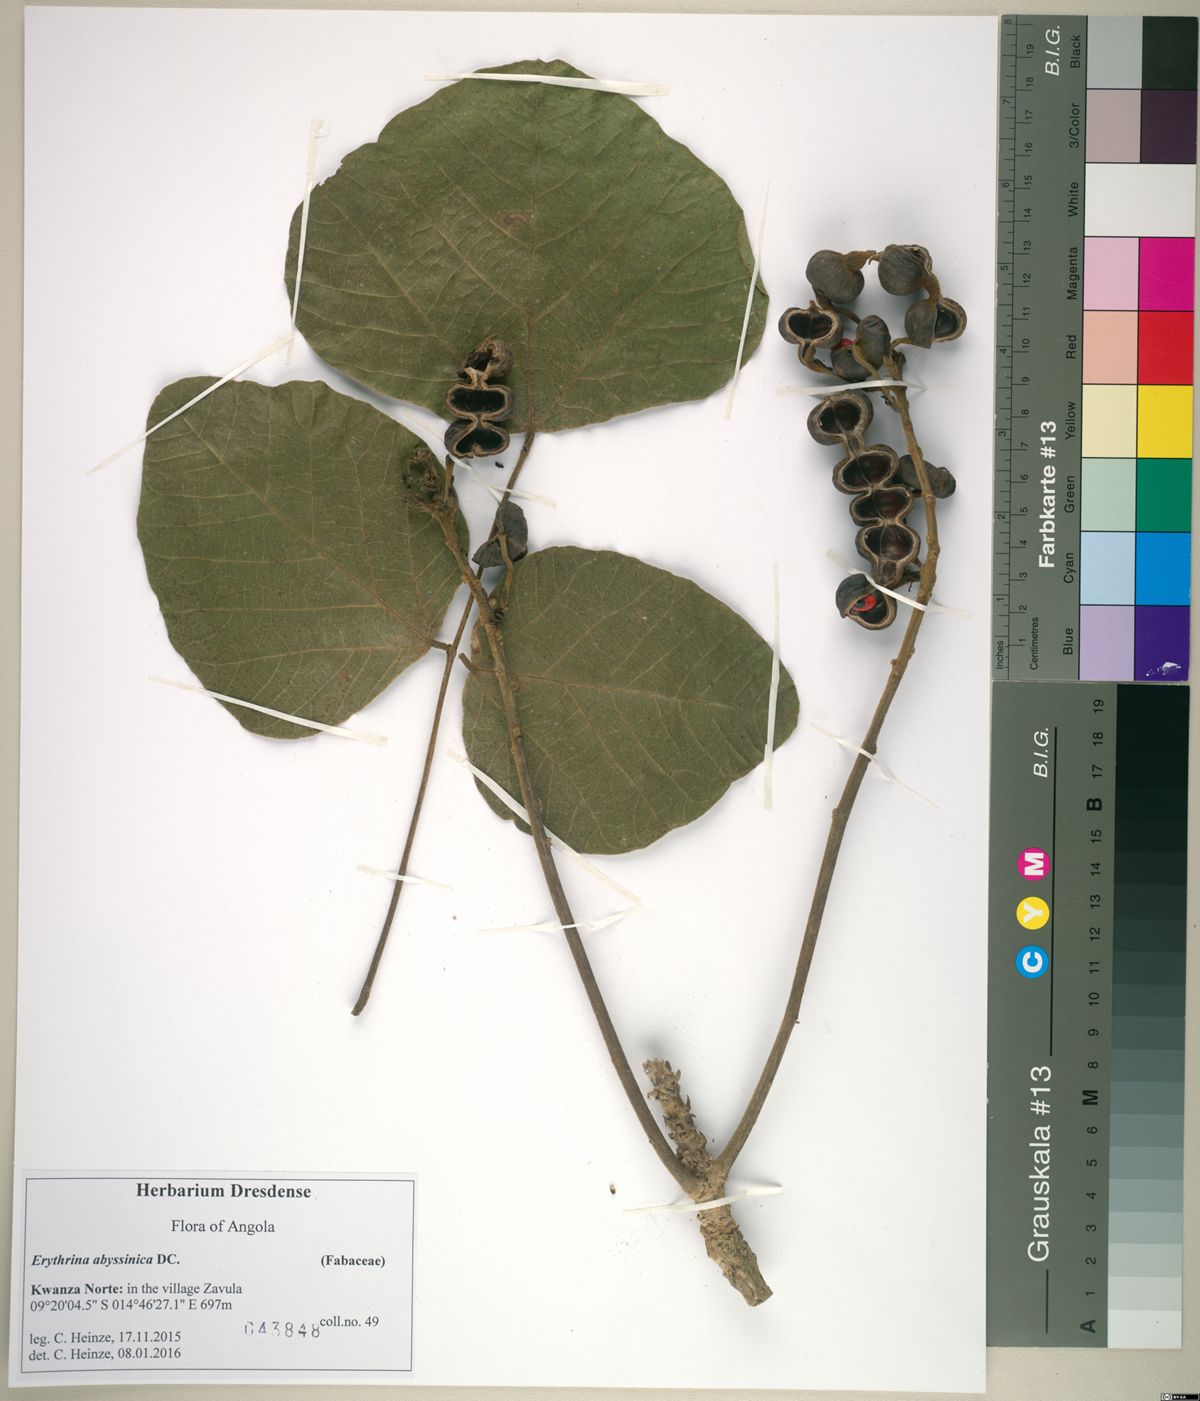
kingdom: Plantae
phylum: Tracheophyta
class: Magnoliopsida
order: Fabales
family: Fabaceae
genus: Erythrina
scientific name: Erythrina abyssinica
